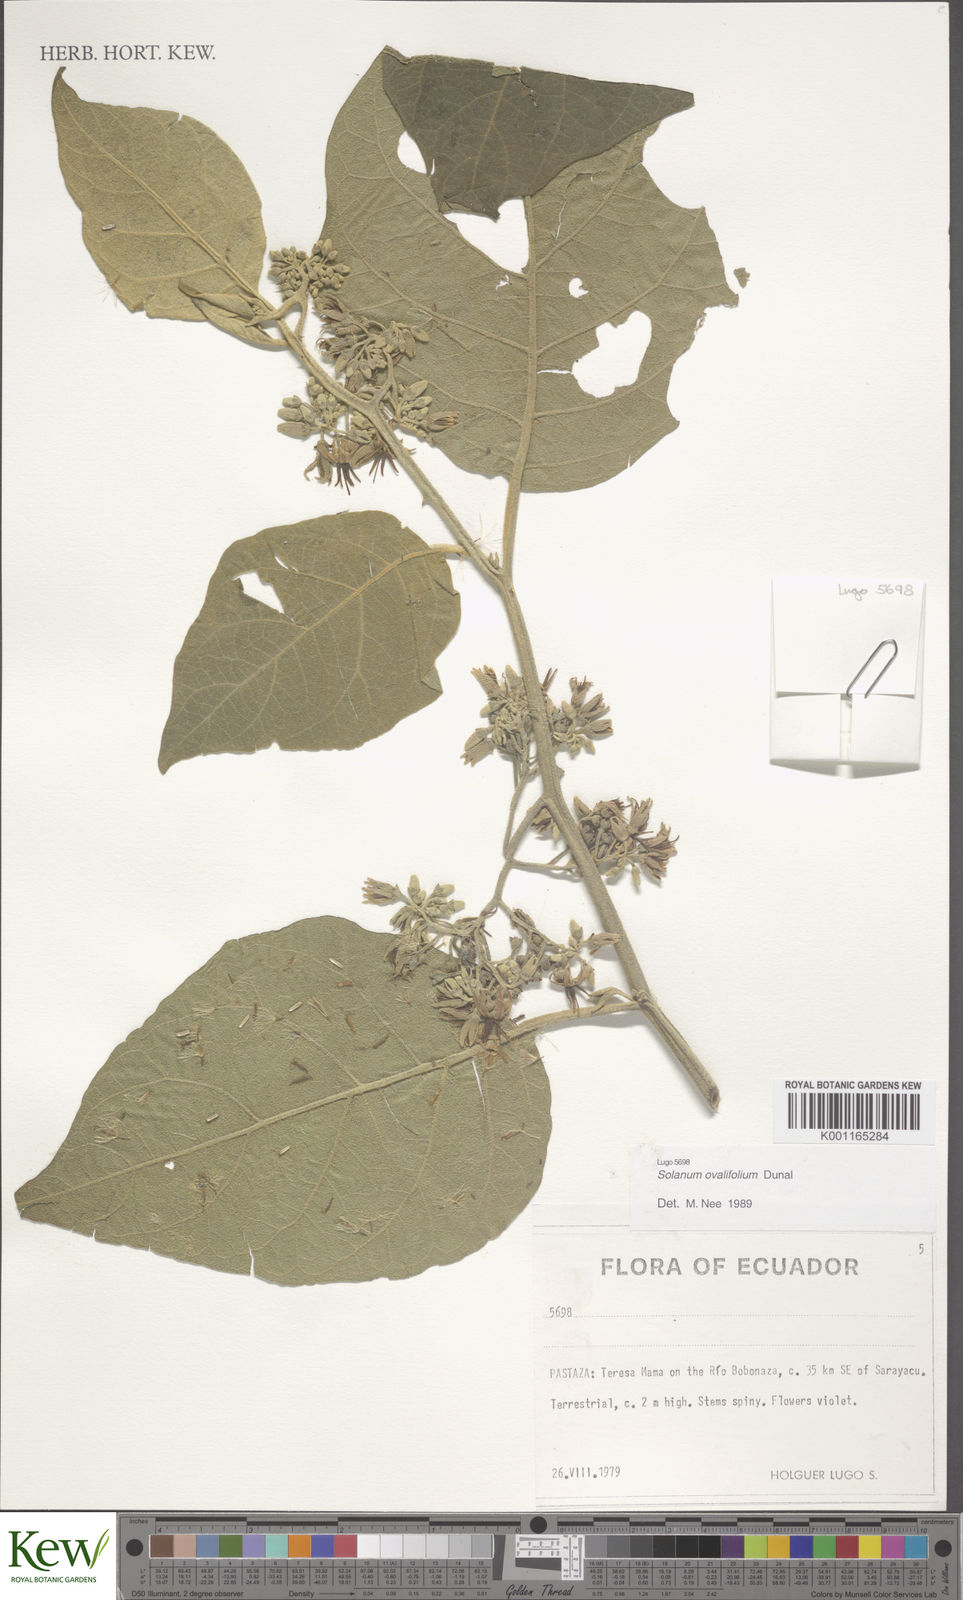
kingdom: Plantae
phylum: Tracheophyta
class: Magnoliopsida
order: Solanales
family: Solanaceae
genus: Solanum
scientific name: Solanum ovalifolium
